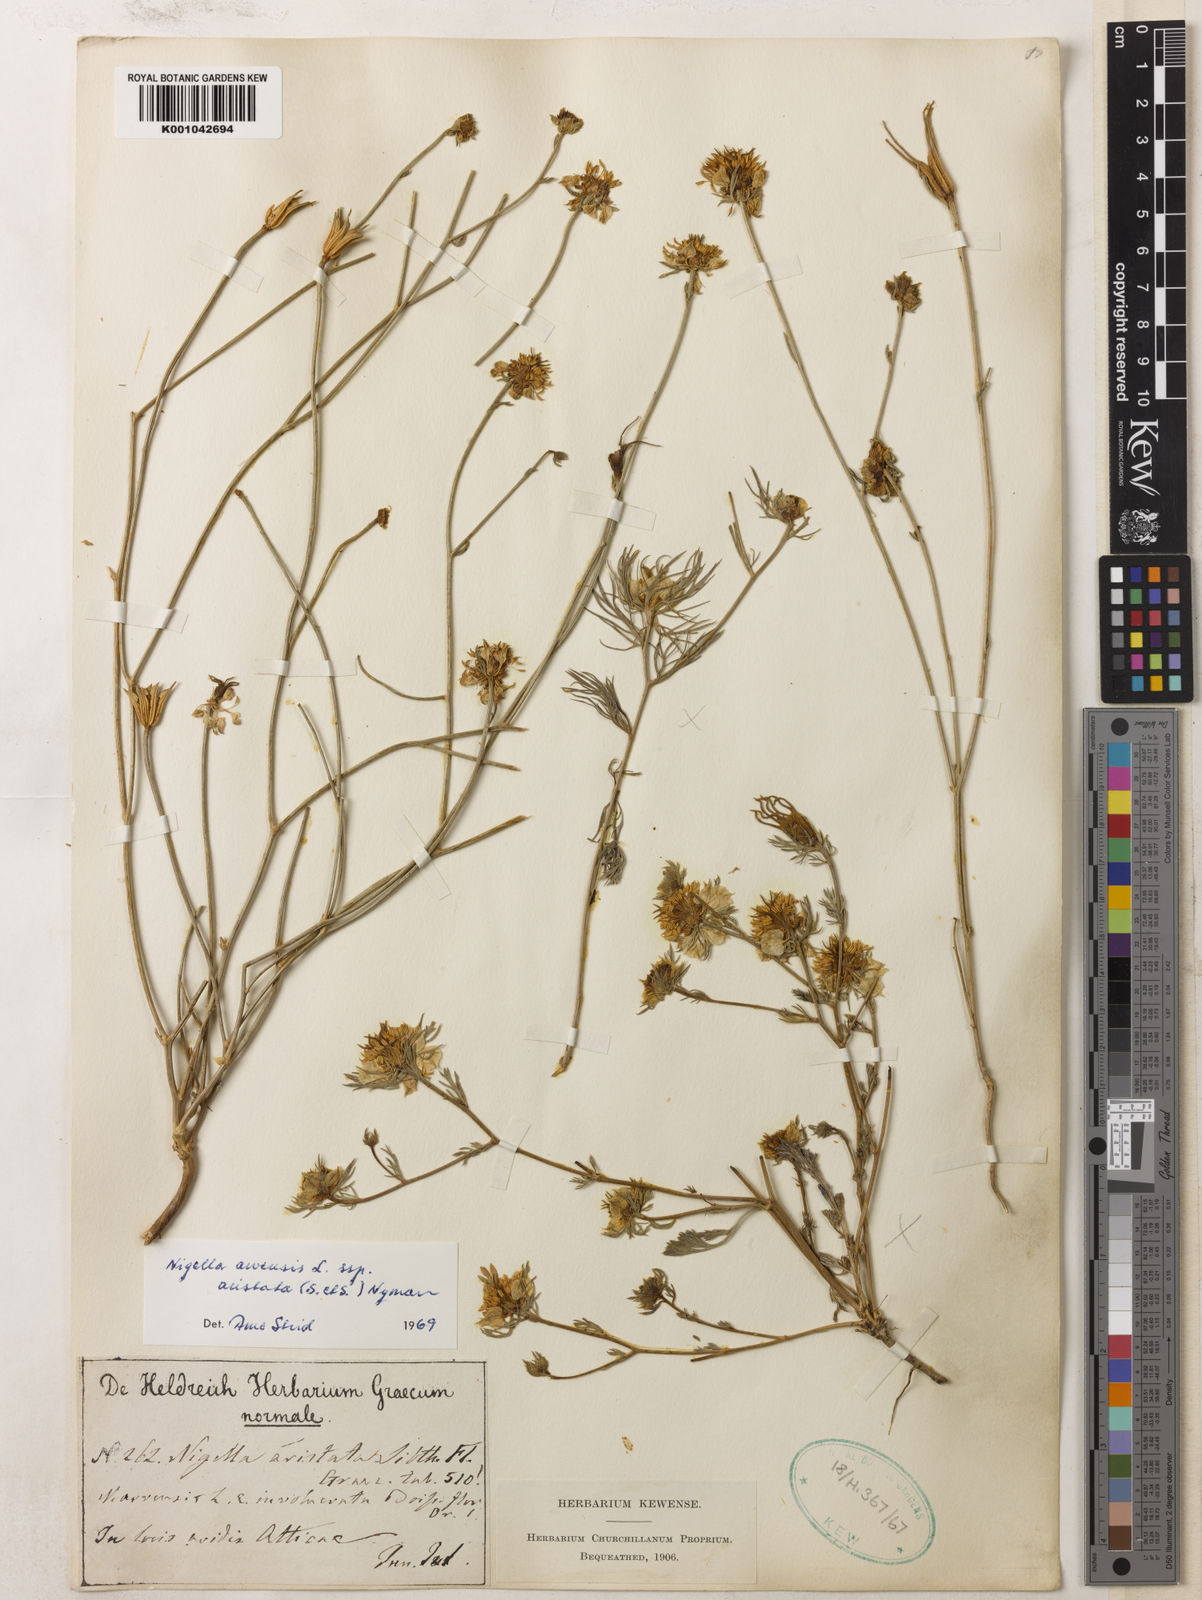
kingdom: Plantae
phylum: Tracheophyta
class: Magnoliopsida
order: Ranunculales
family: Ranunculaceae
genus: Nigella
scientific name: Nigella arvensis
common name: Wild fennel-flower
